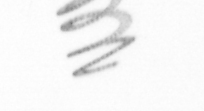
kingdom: Chromista
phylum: Ochrophyta
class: Bacillariophyceae
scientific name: Bacillariophyceae
